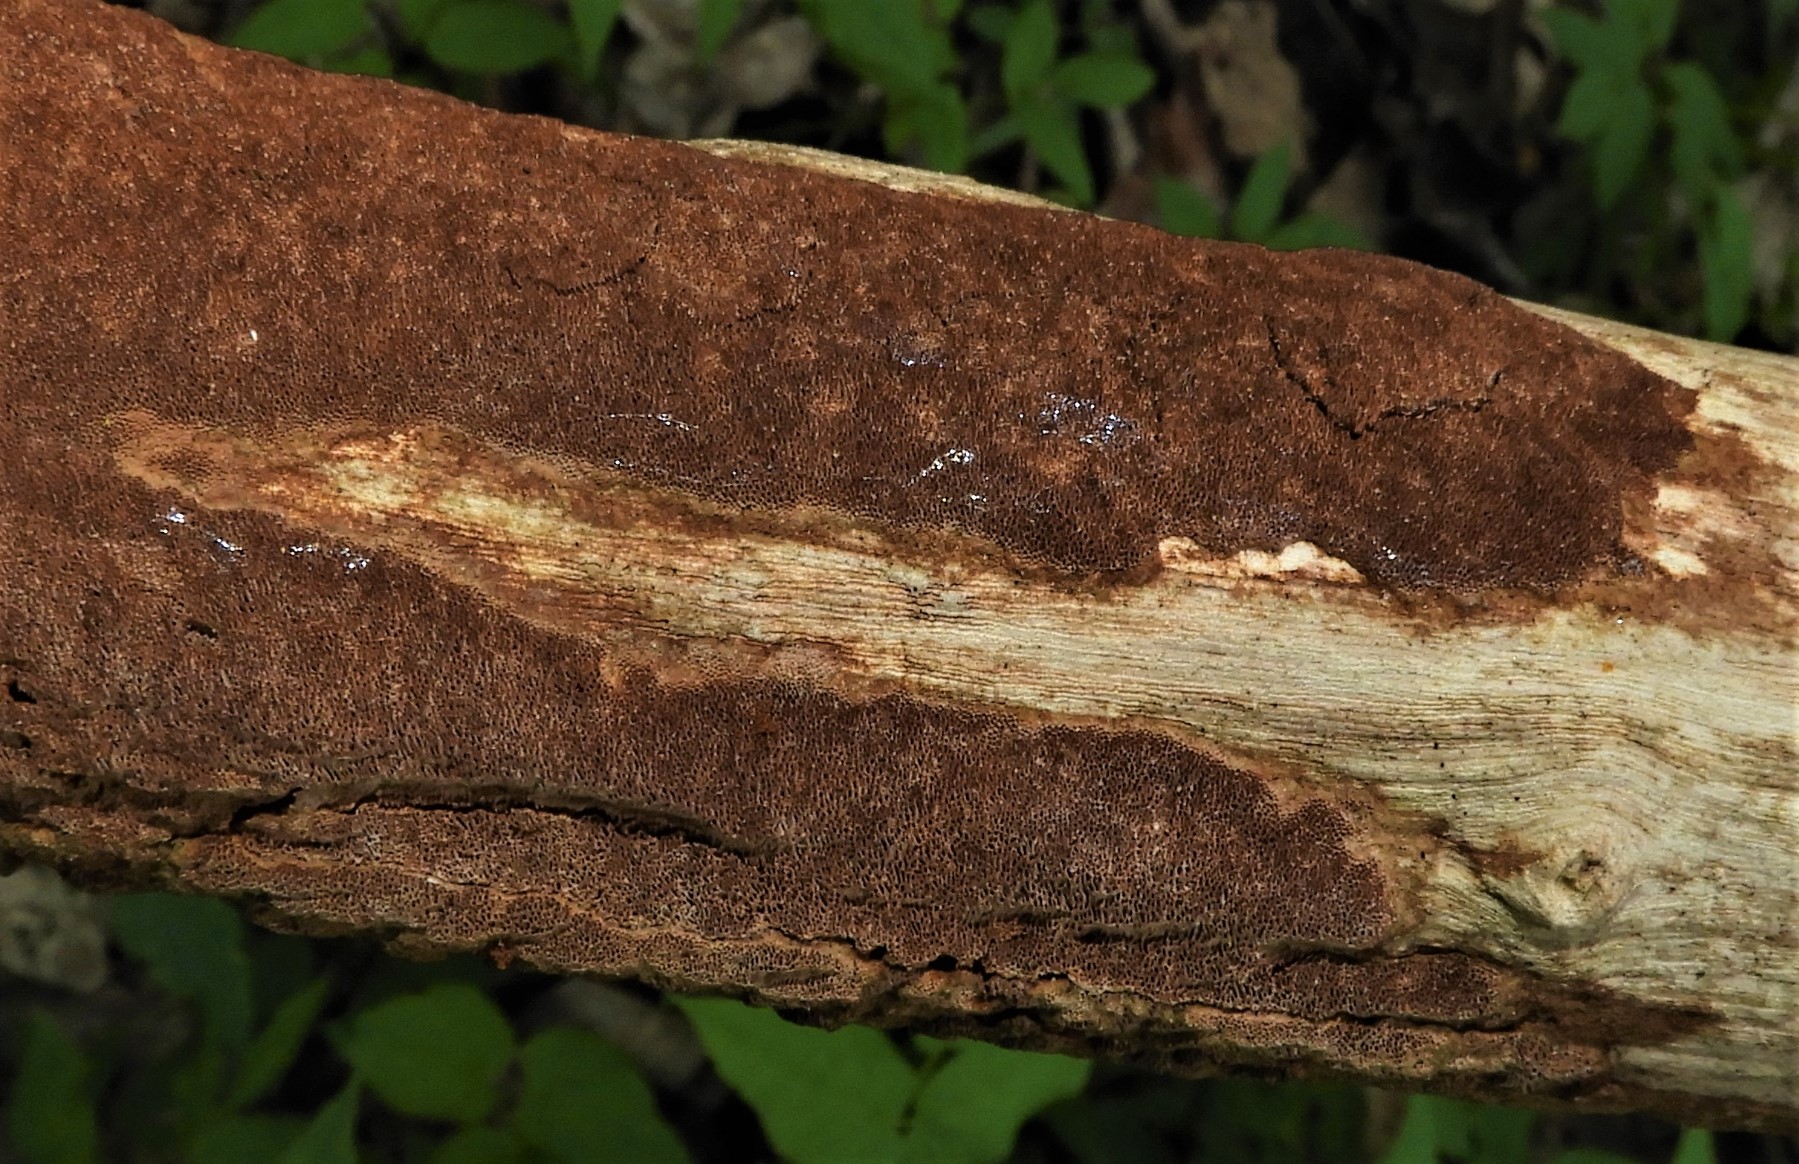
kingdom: Fungi
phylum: Basidiomycota
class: Agaricomycetes
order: Hymenochaetales
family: Hymenochaetaceae
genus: Fuscoporia
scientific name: Fuscoporia ferrea
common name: skorpe-ildporesvamp
